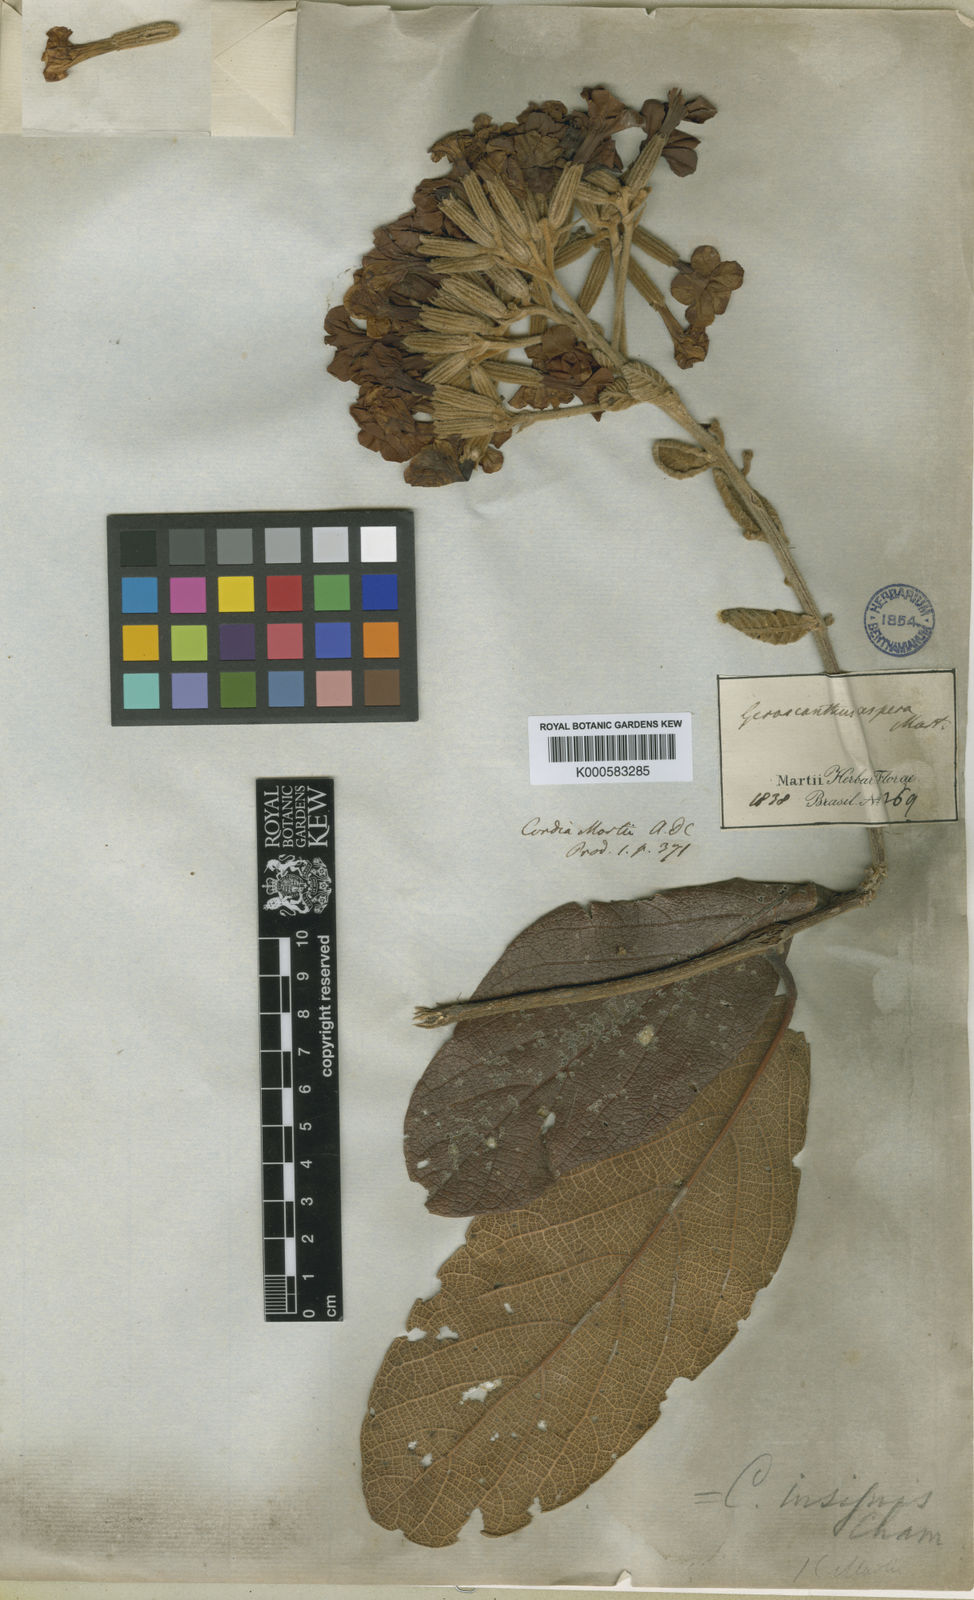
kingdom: Plantae
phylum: Tracheophyta
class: Magnoliopsida
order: Boraginales
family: Cordiaceae
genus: Cordia
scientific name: Cordia insignis
